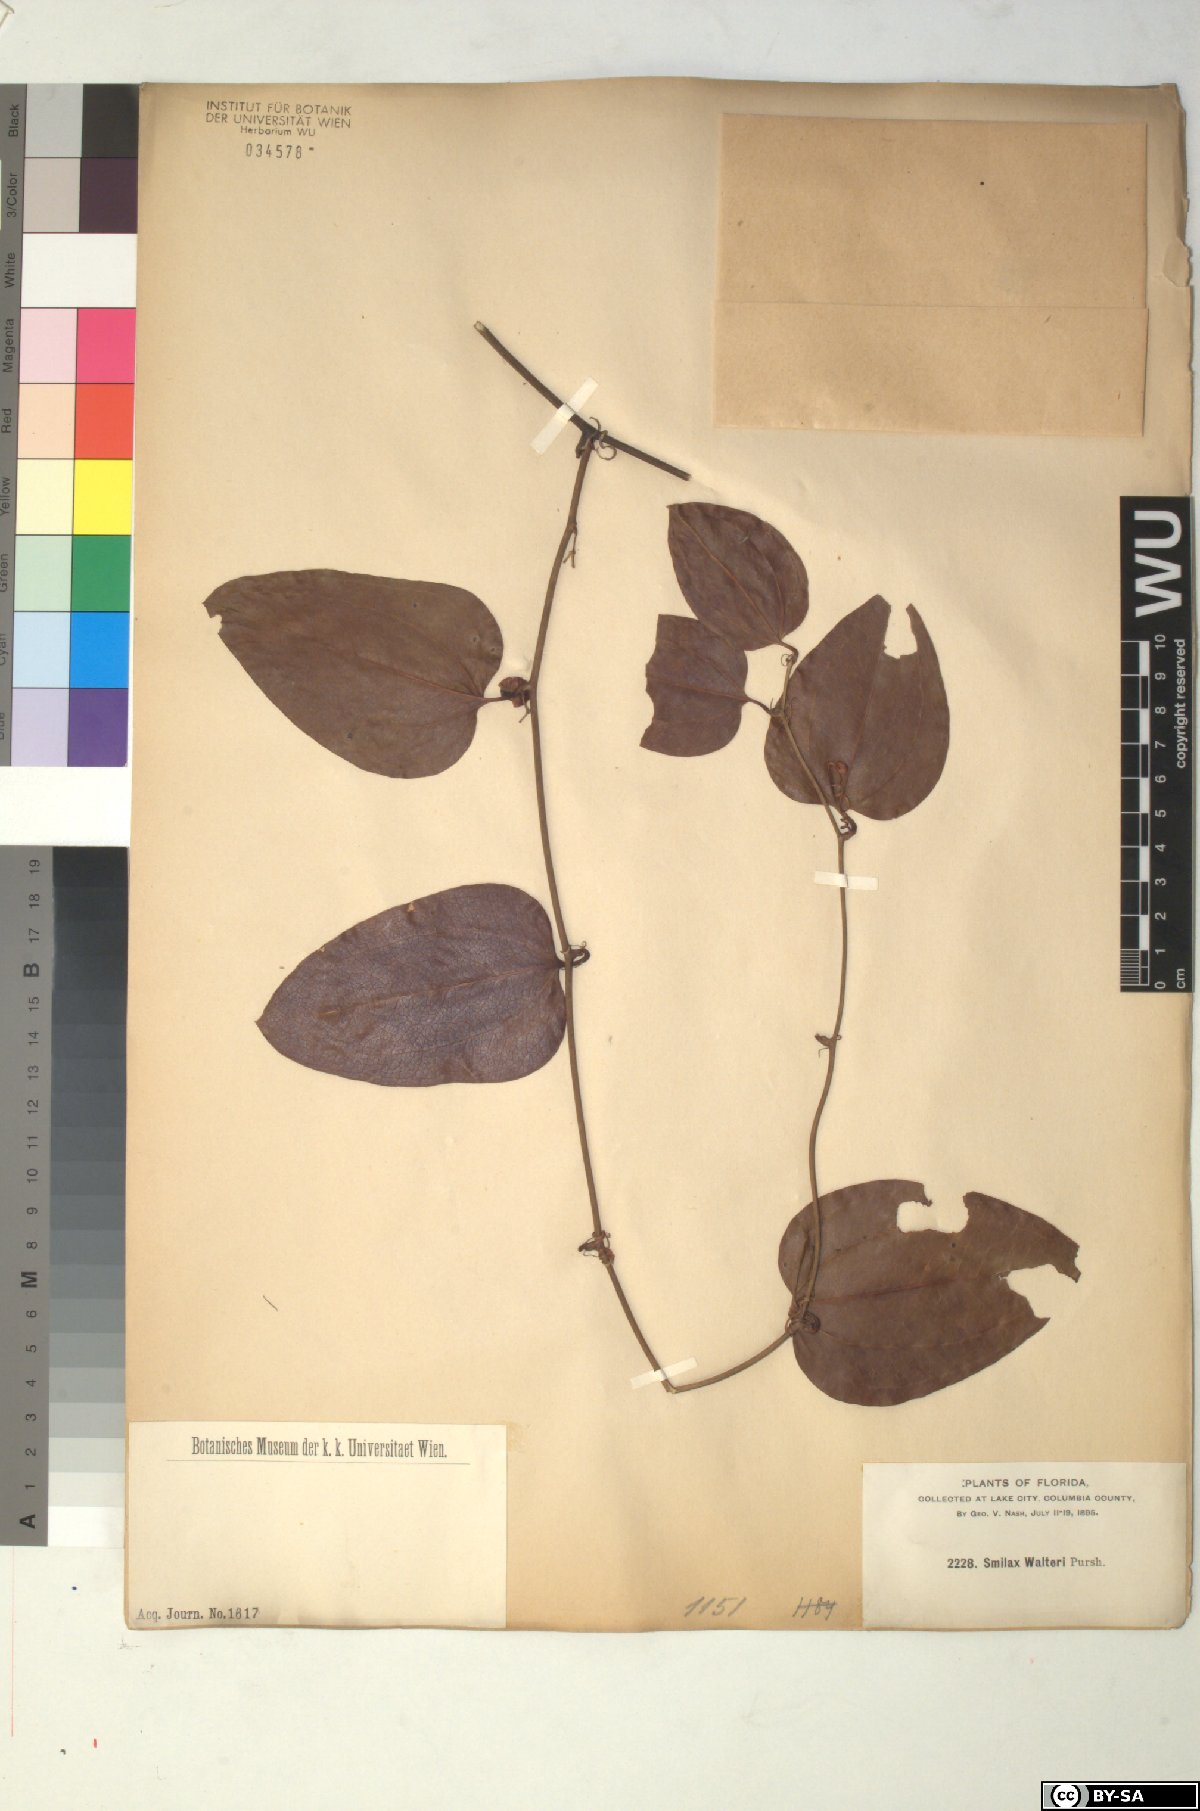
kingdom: Plantae
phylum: Tracheophyta
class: Liliopsida
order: Liliales
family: Smilacaceae
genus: Smilax
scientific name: Smilax walteri
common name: Coral greenbrier
